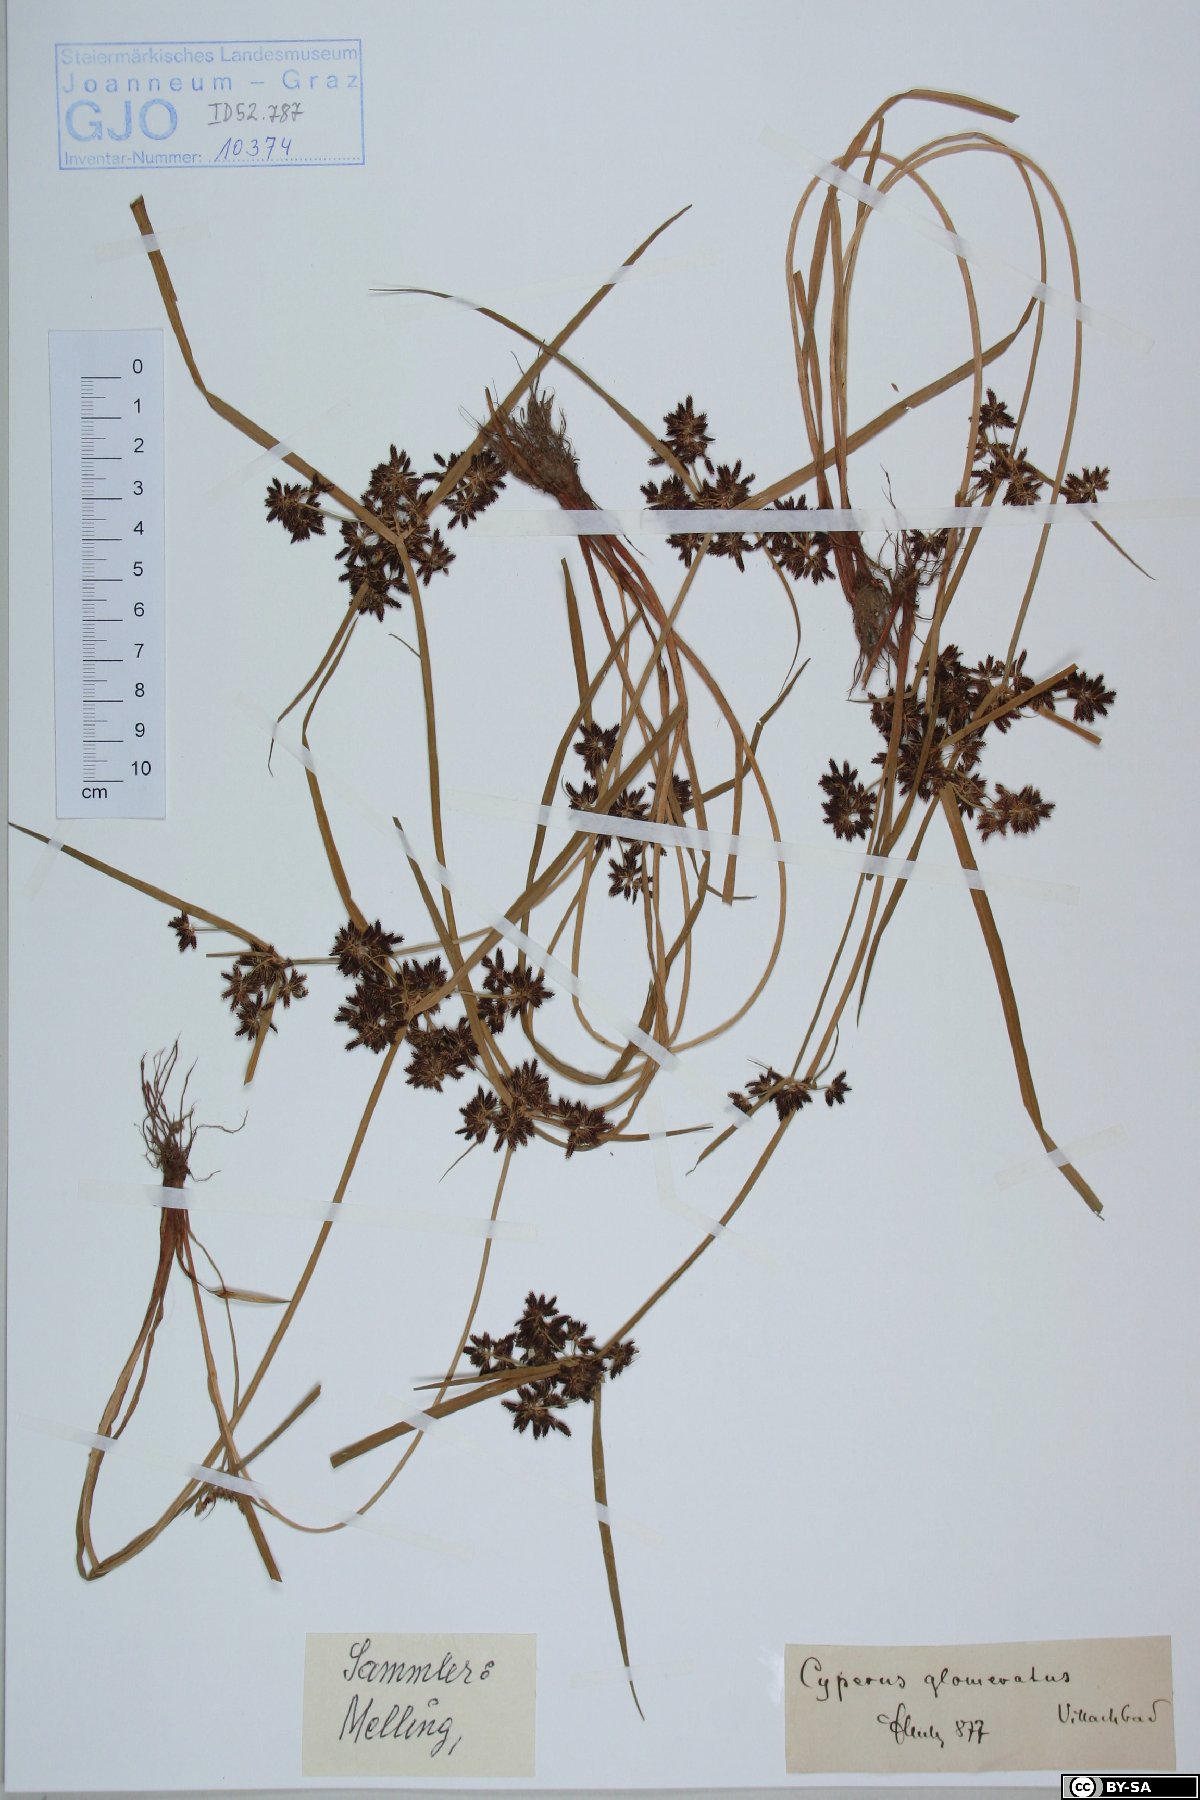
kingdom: Plantae
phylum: Tracheophyta
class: Liliopsida
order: Poales
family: Cyperaceae
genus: Cyperus
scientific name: Cyperus glomeratus
